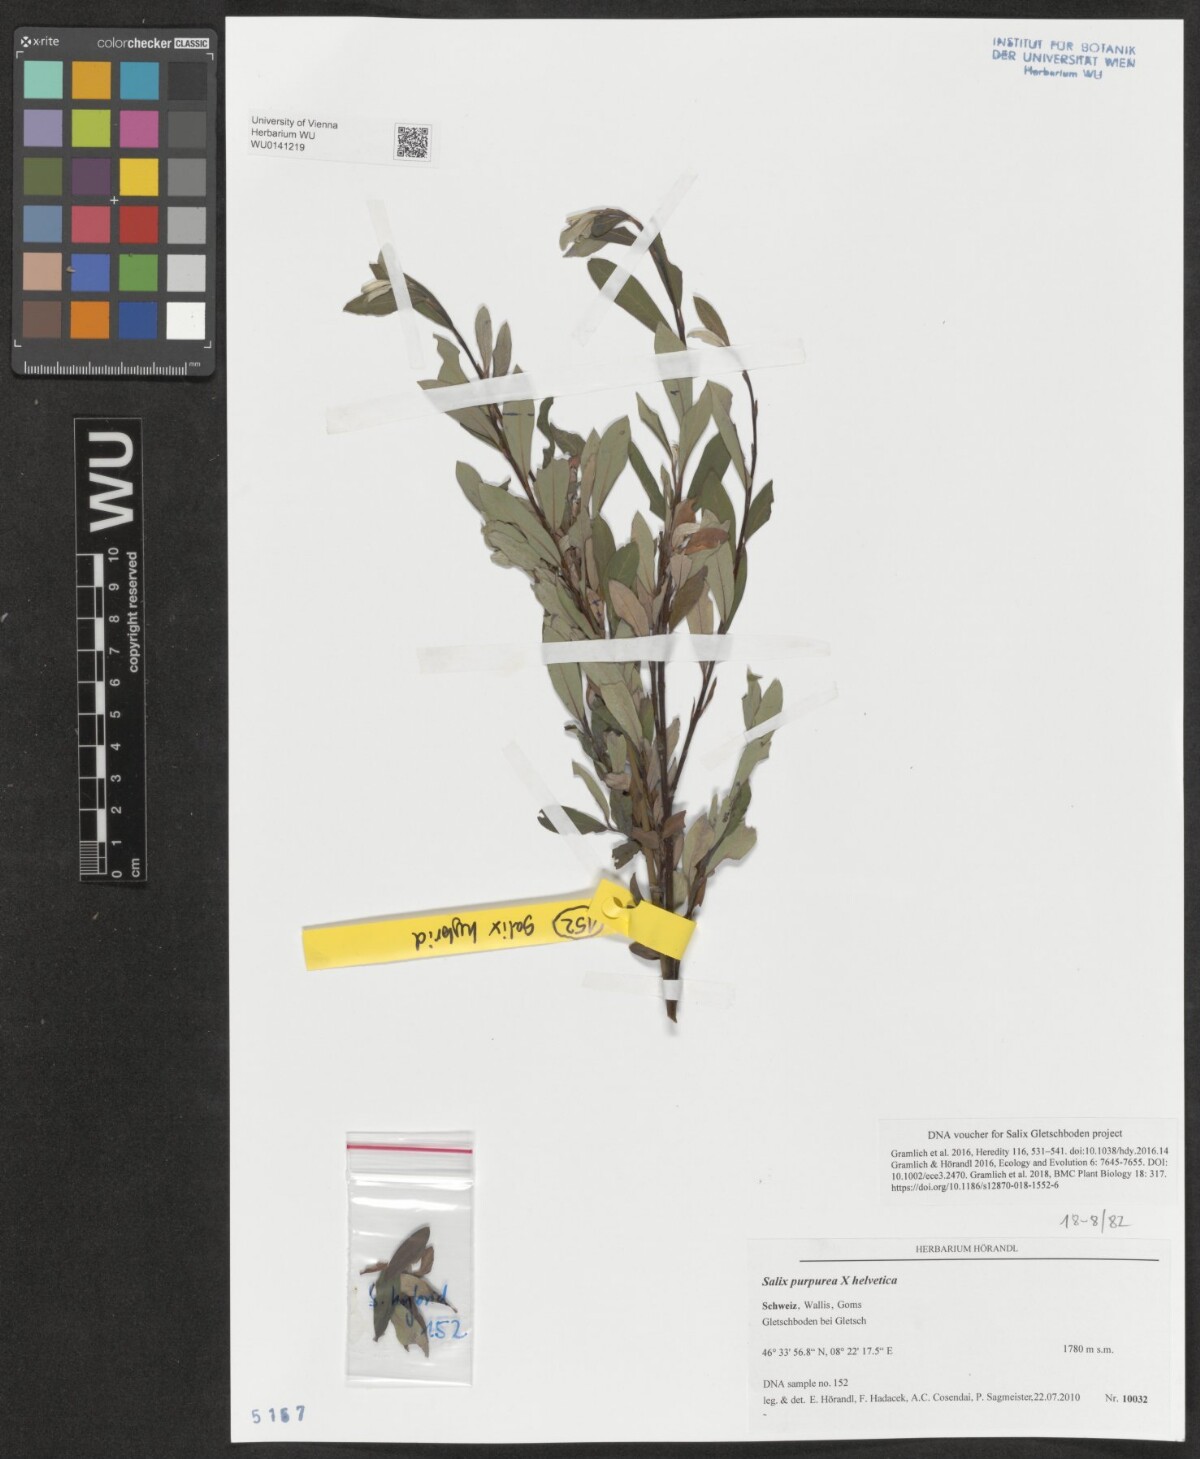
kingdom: Plantae
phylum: Tracheophyta
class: Magnoliopsida
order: Malpighiales
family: Salicaceae
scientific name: Salicaceae
